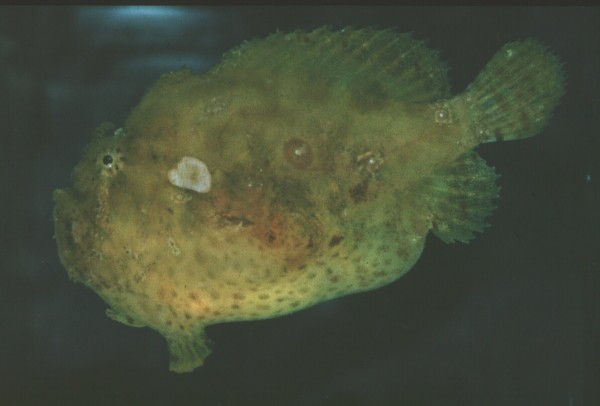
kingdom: Animalia
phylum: Chordata
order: Lophiiformes
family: Antennariidae
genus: Antennatus
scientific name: Antennatus coccineus
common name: Scarlet frogfish
